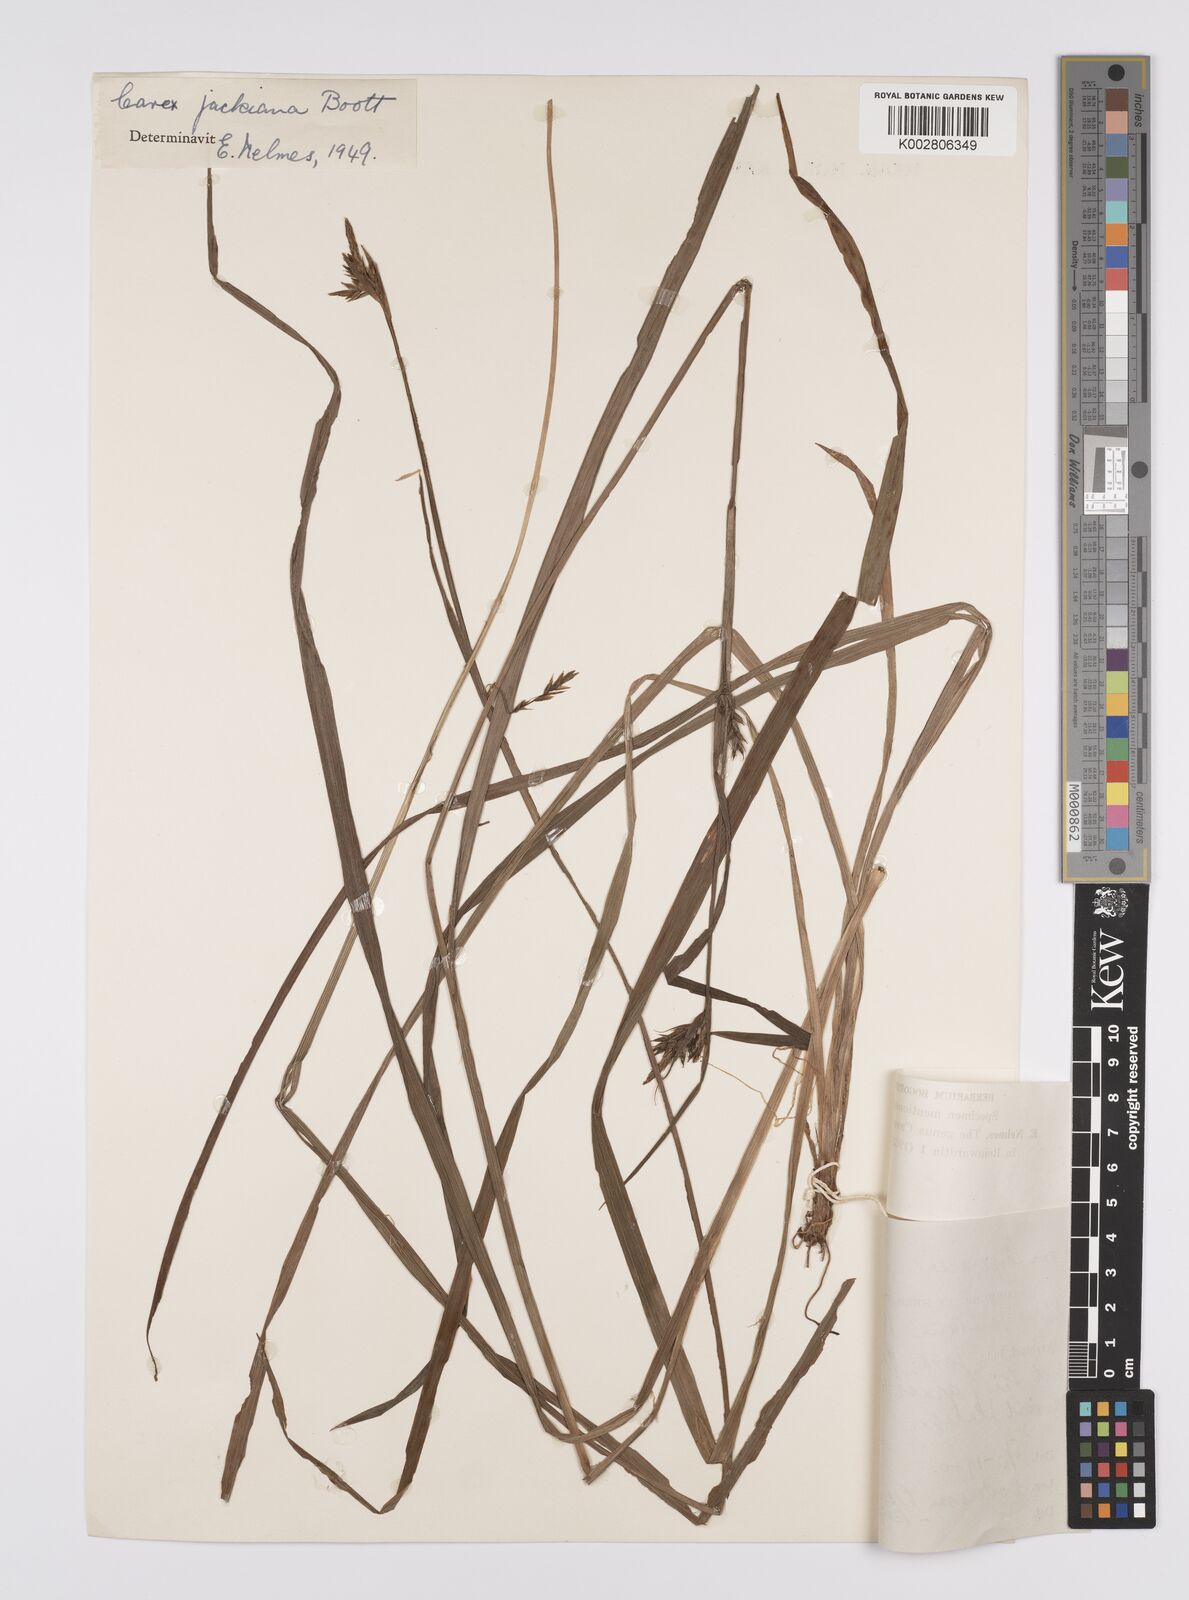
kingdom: Plantae
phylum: Tracheophyta
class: Liliopsida
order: Poales
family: Cyperaceae
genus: Carex
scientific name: Carex jackiana
